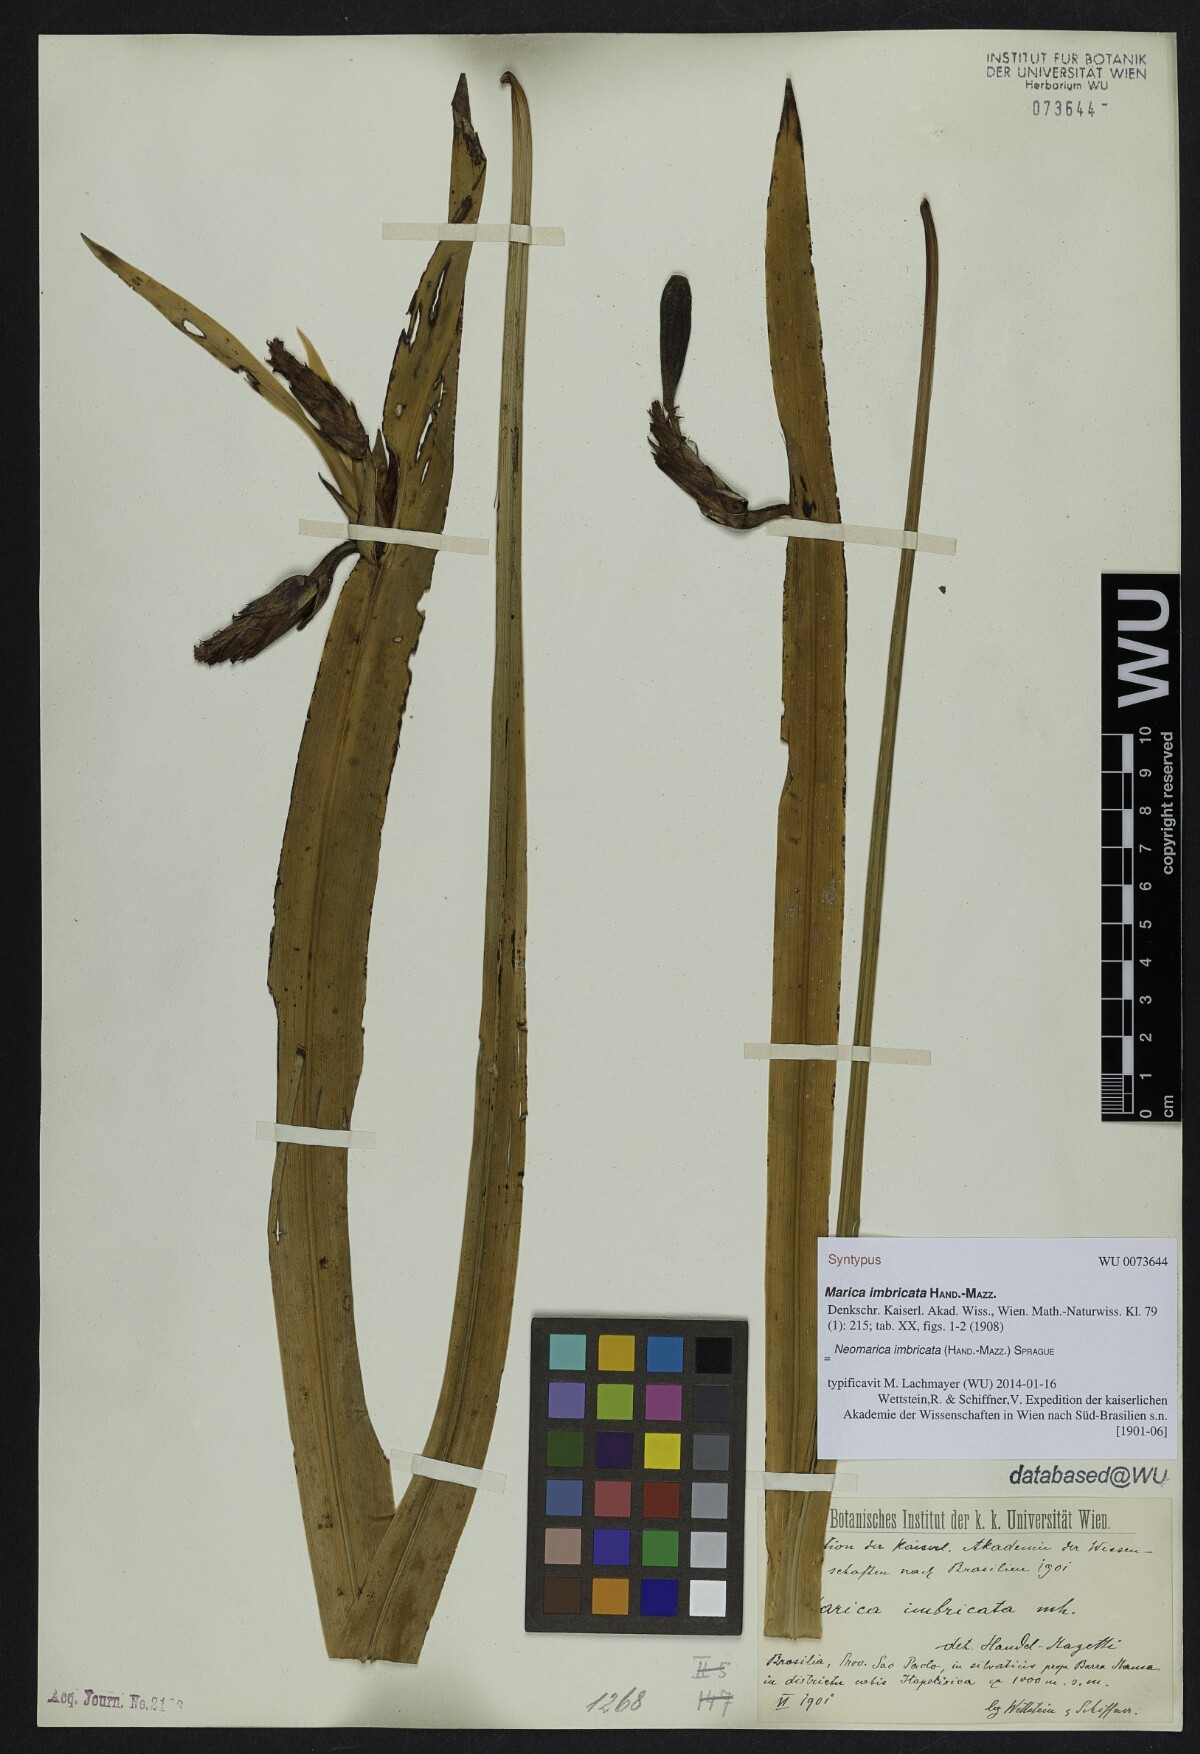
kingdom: Plantae
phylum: Tracheophyta
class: Liliopsida
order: Asparagales
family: Iridaceae
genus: Trimezia
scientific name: Trimezia imbricata
